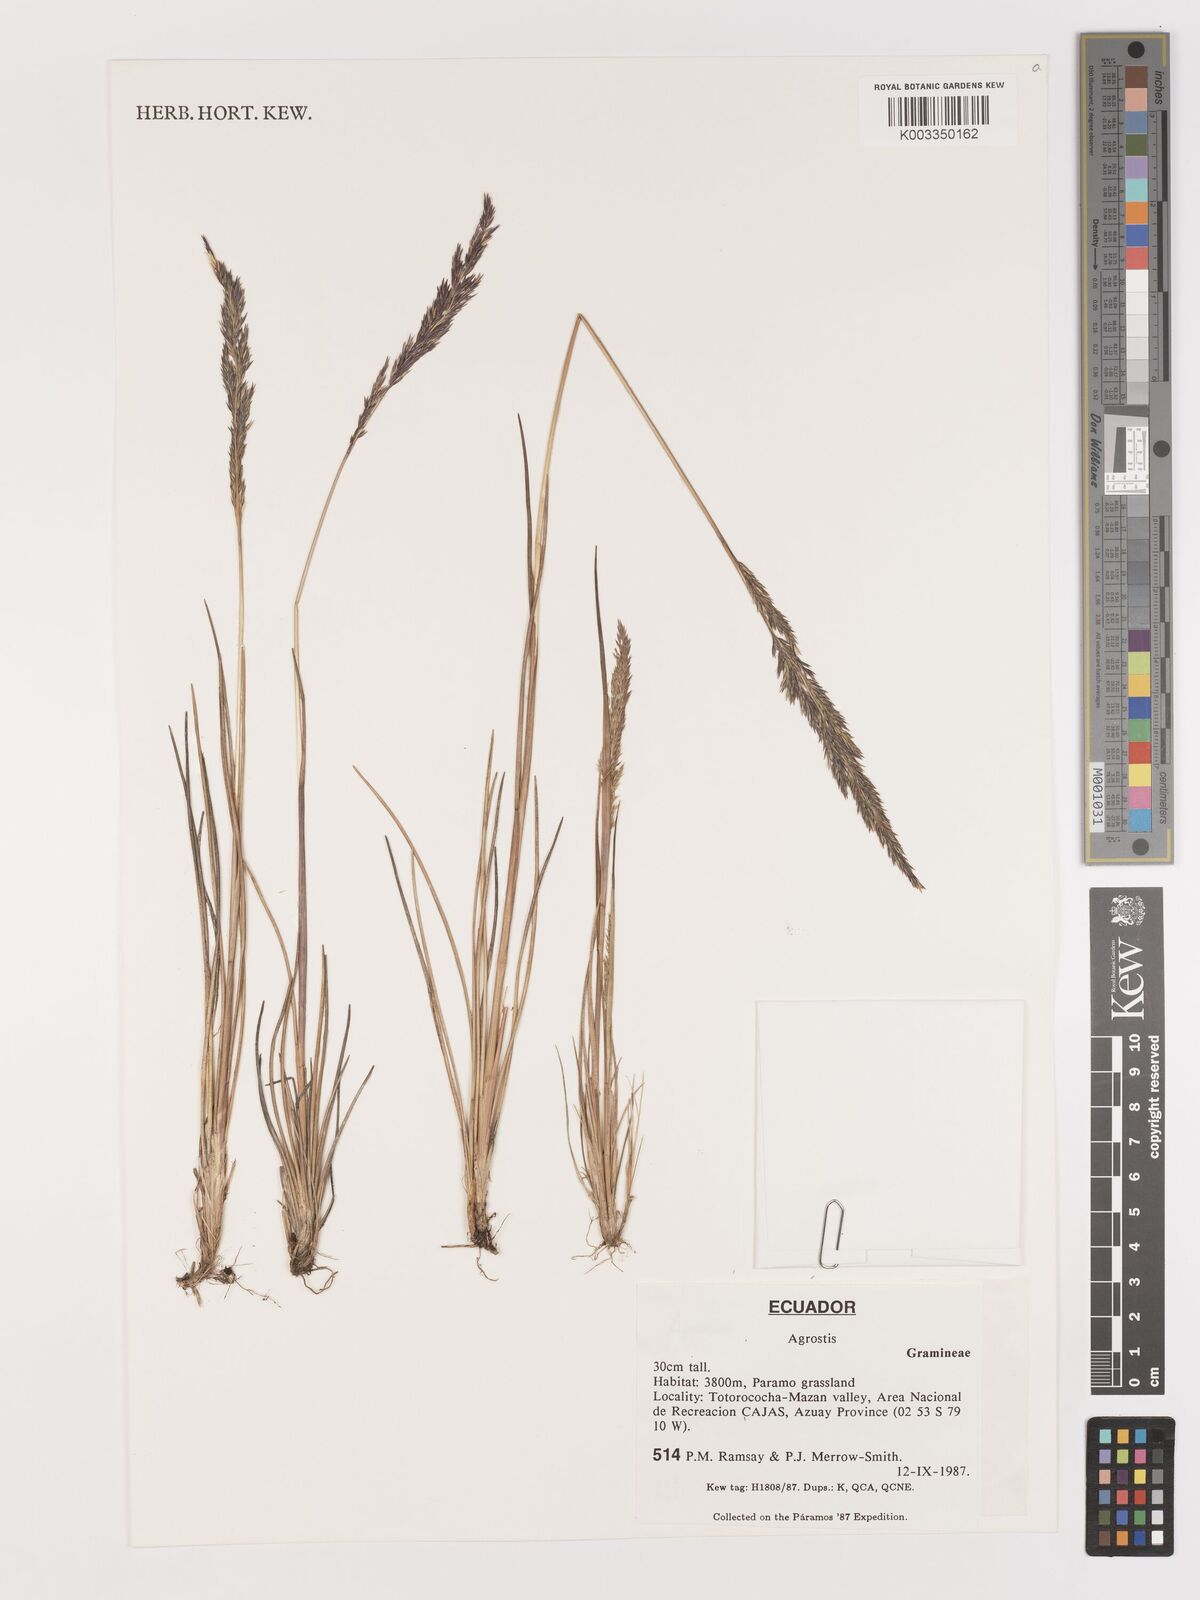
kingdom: Plantae
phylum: Tracheophyta
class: Liliopsida
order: Poales
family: Poaceae
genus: Agrostis
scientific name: Agrostis
